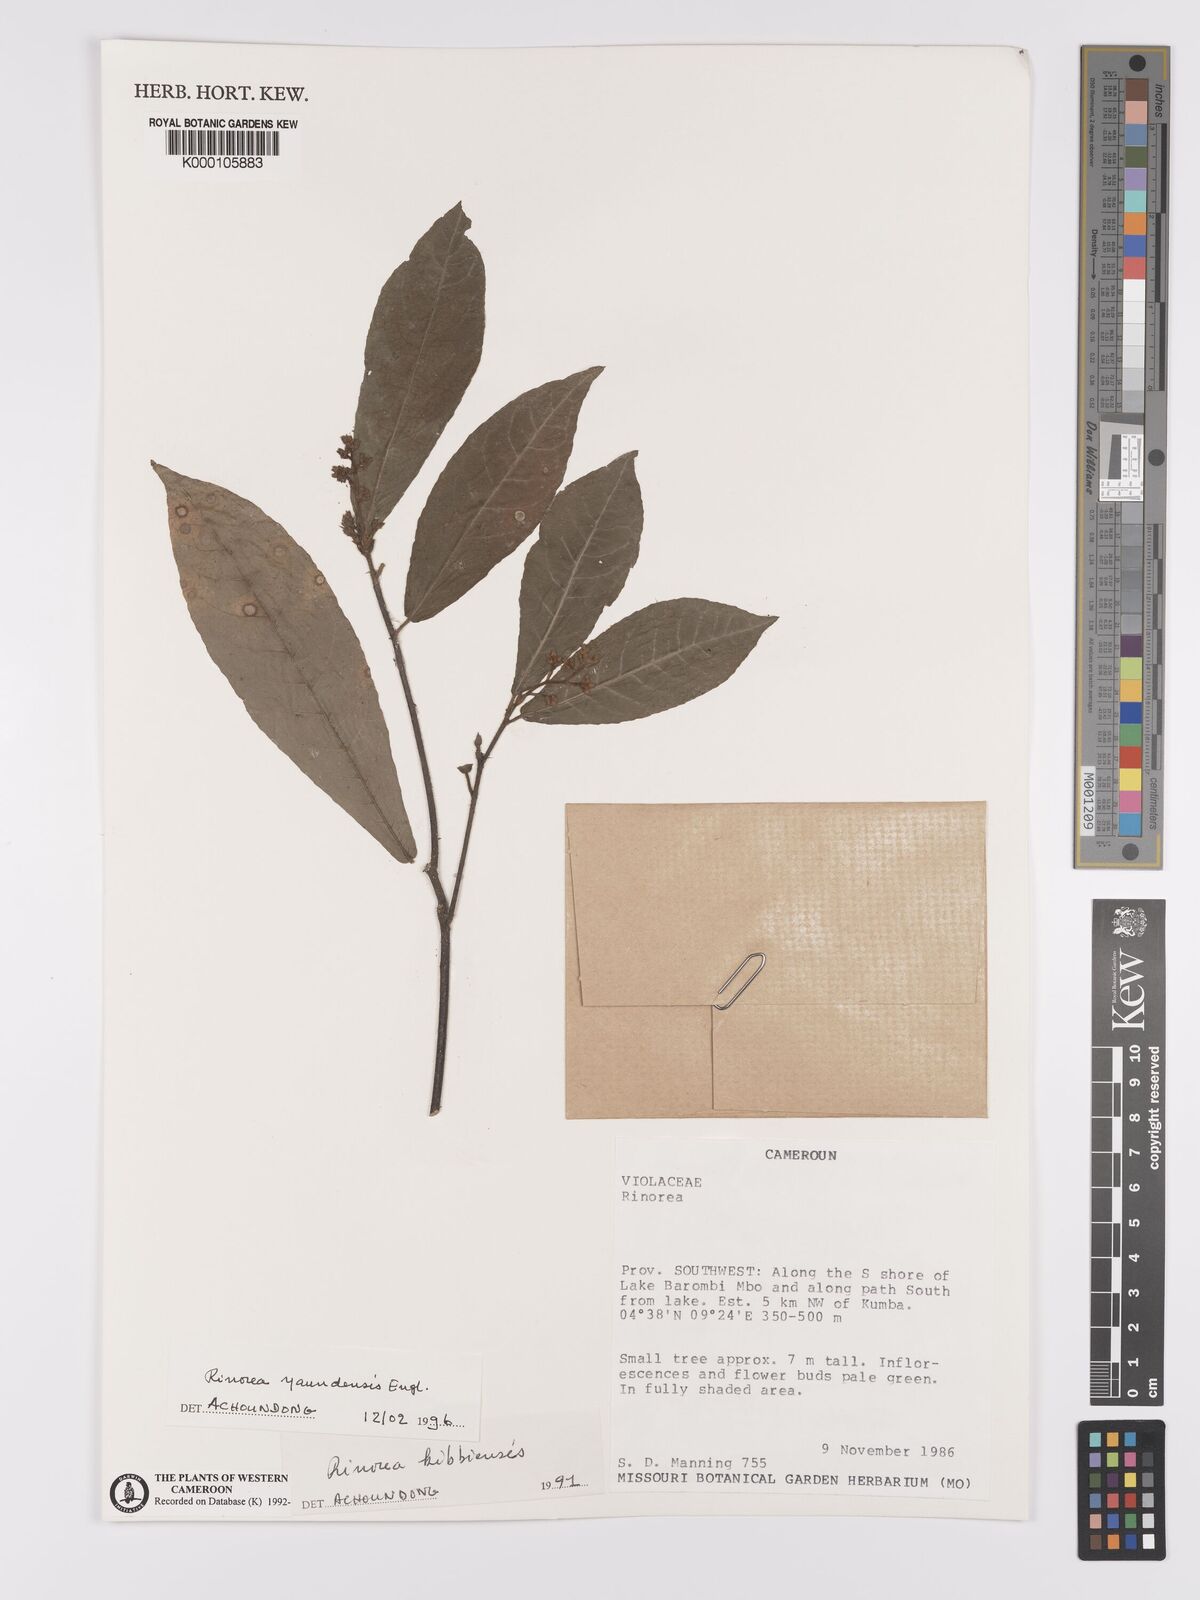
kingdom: Plantae
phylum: Tracheophyta
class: Magnoliopsida
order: Malpighiales
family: Violaceae
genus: Rinorea
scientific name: Rinorea yaundensis
